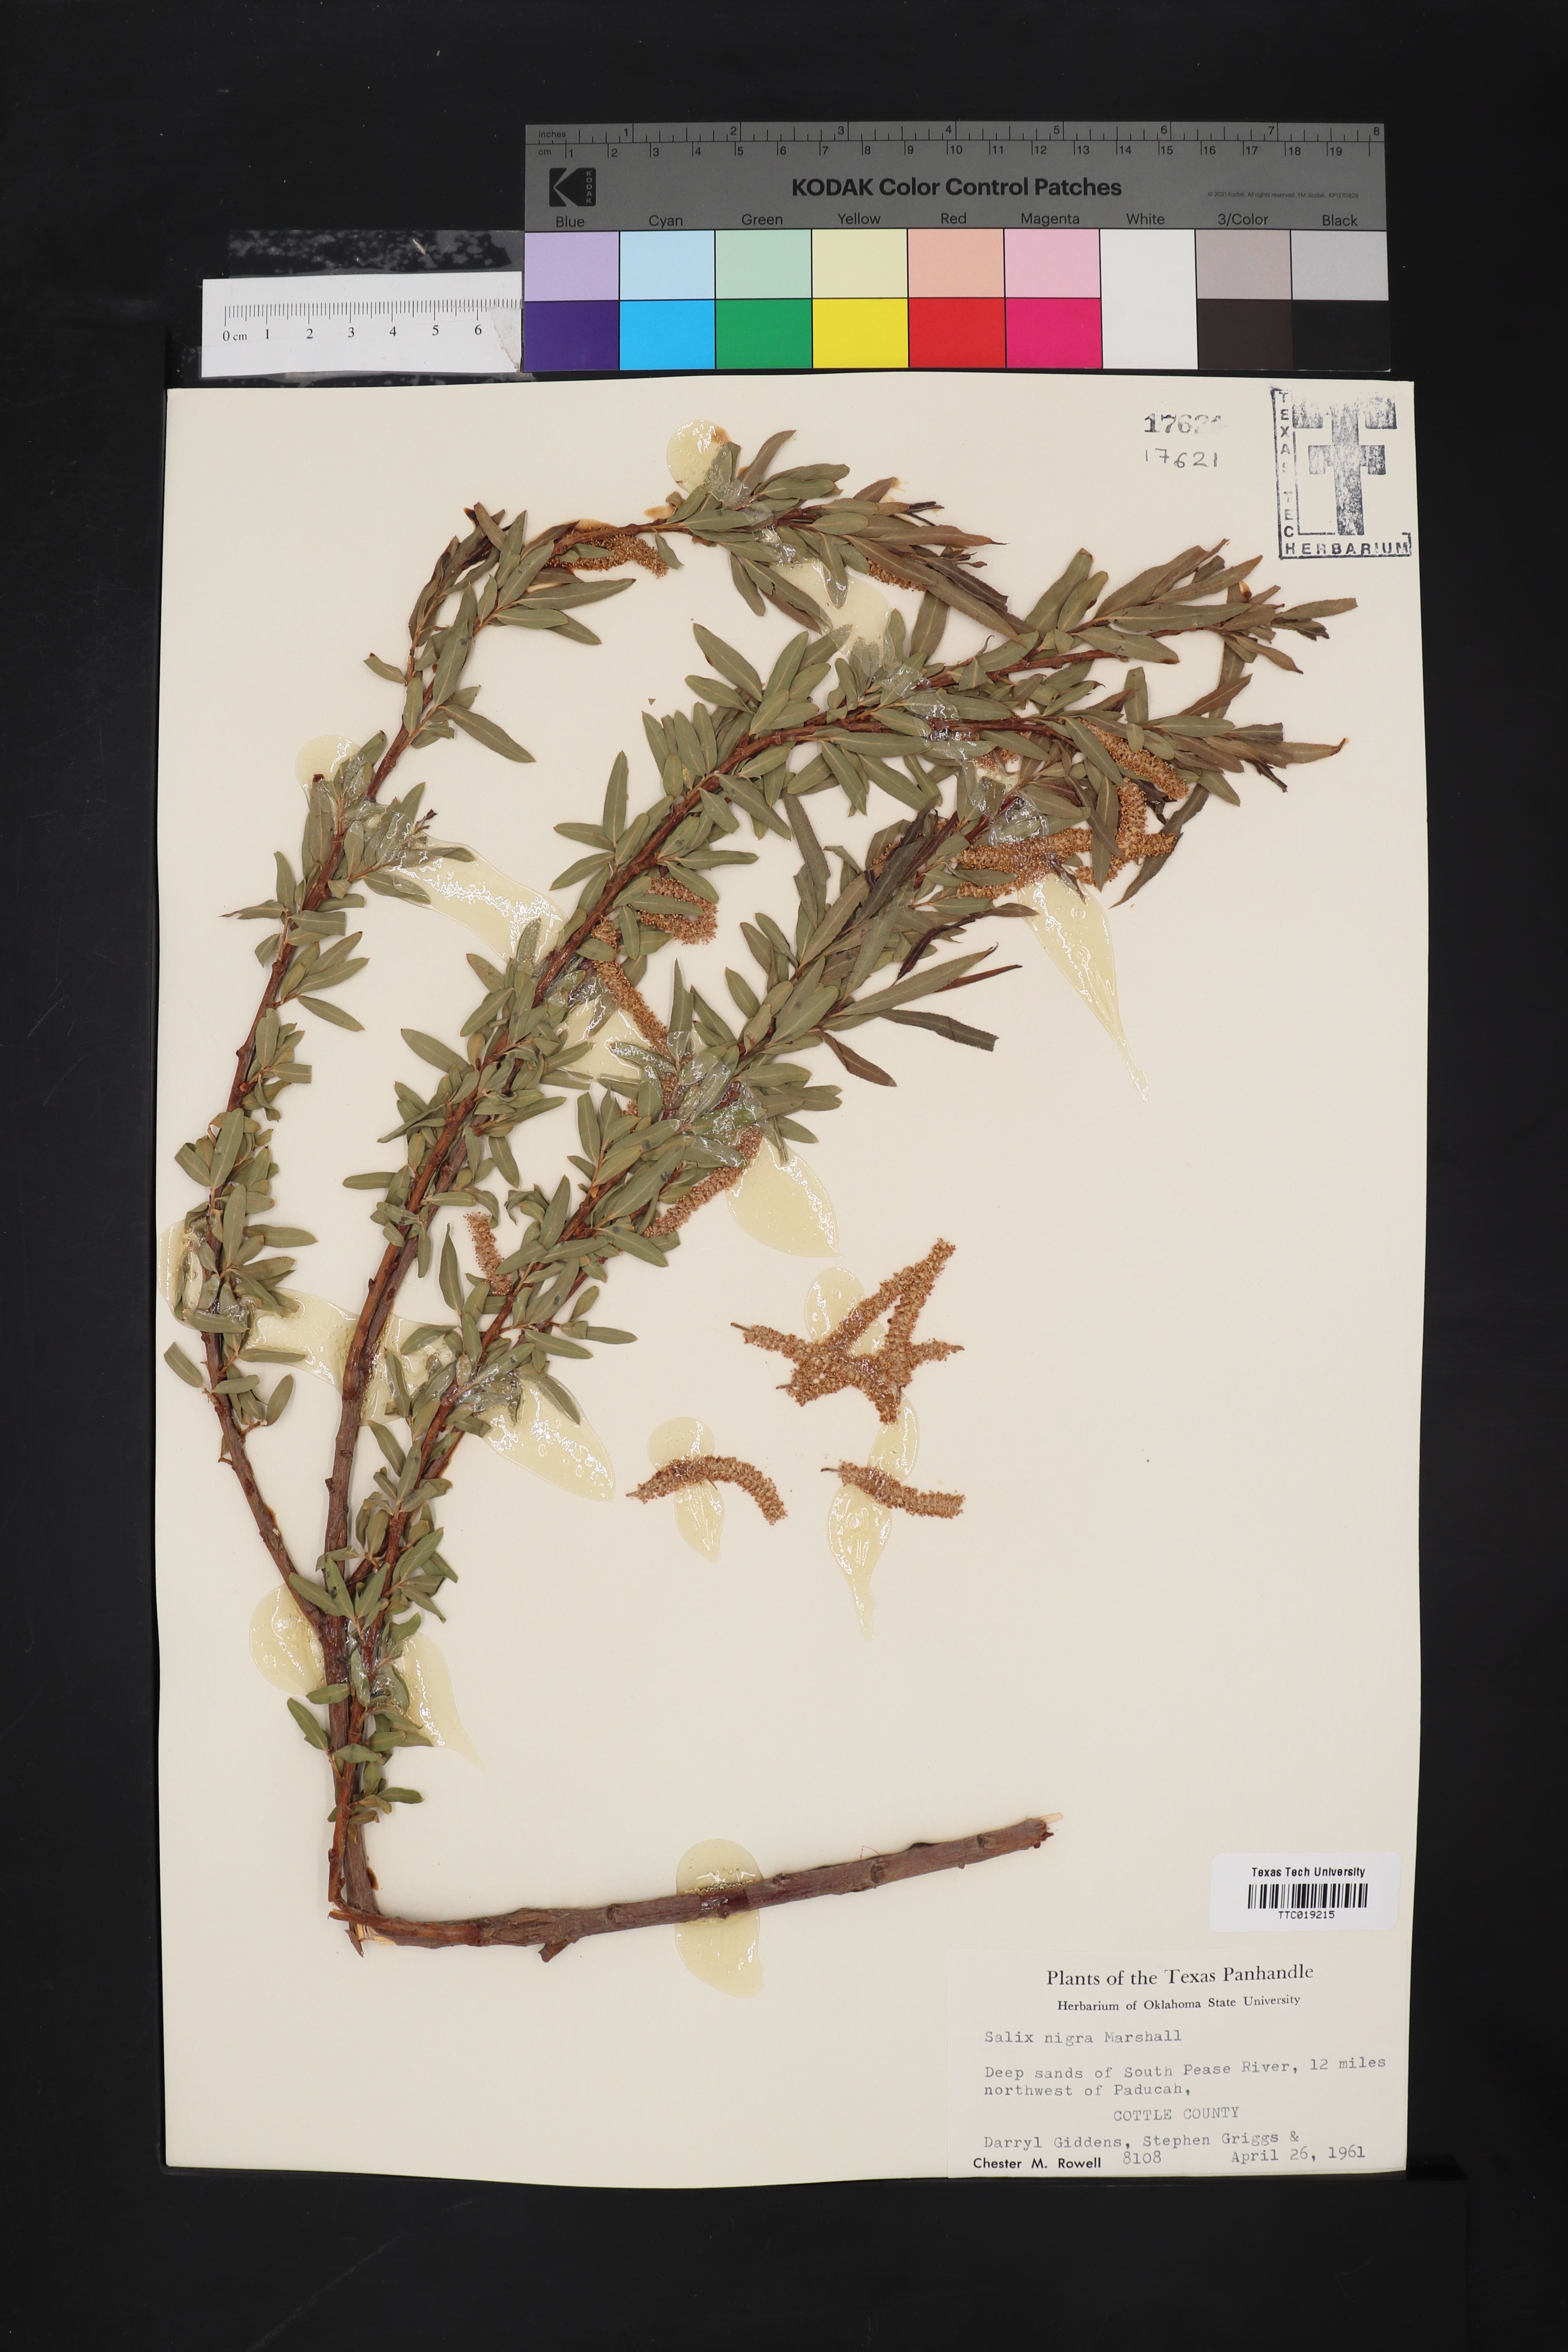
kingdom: Plantae
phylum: Tracheophyta
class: Magnoliopsida
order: Malpighiales
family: Salicaceae
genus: Salix
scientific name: Salix nigra
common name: Black willow
